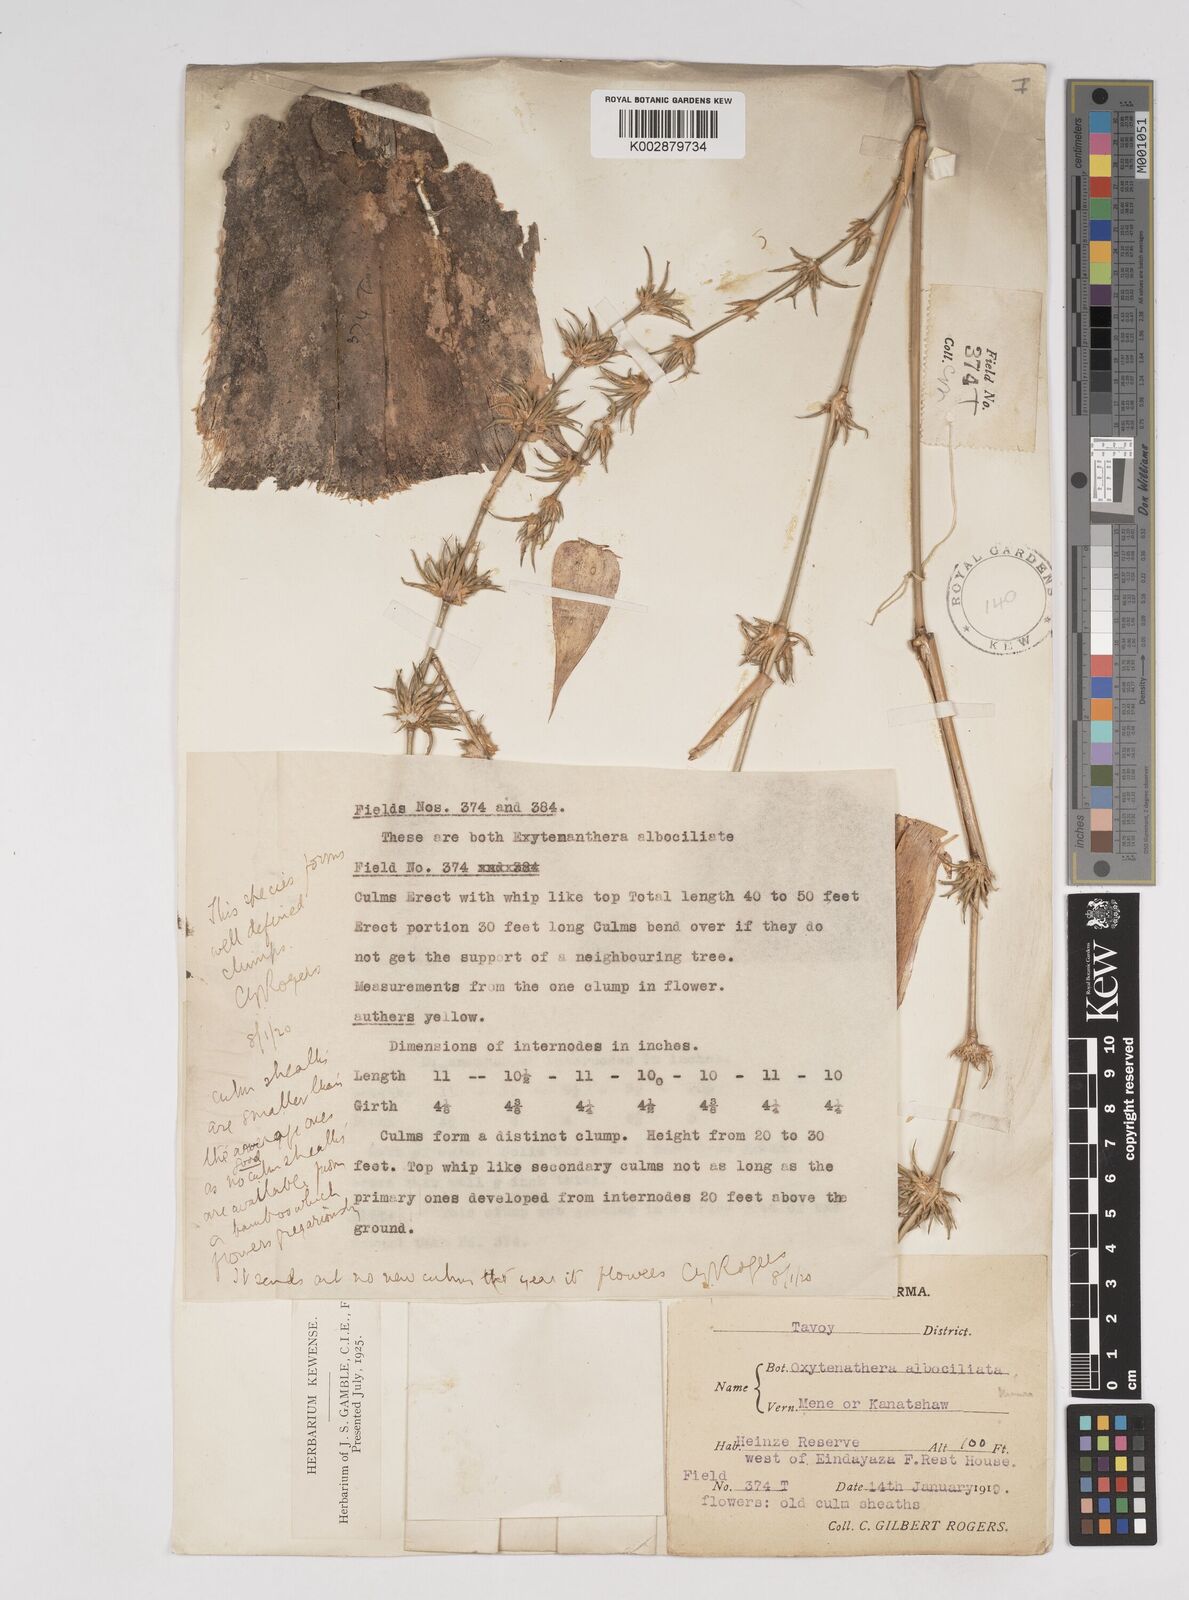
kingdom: Plantae
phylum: Tracheophyta
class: Liliopsida
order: Poales
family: Poaceae
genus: Gigantochloa
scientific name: Gigantochloa albociliata
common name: White-fringe gigantochloa
